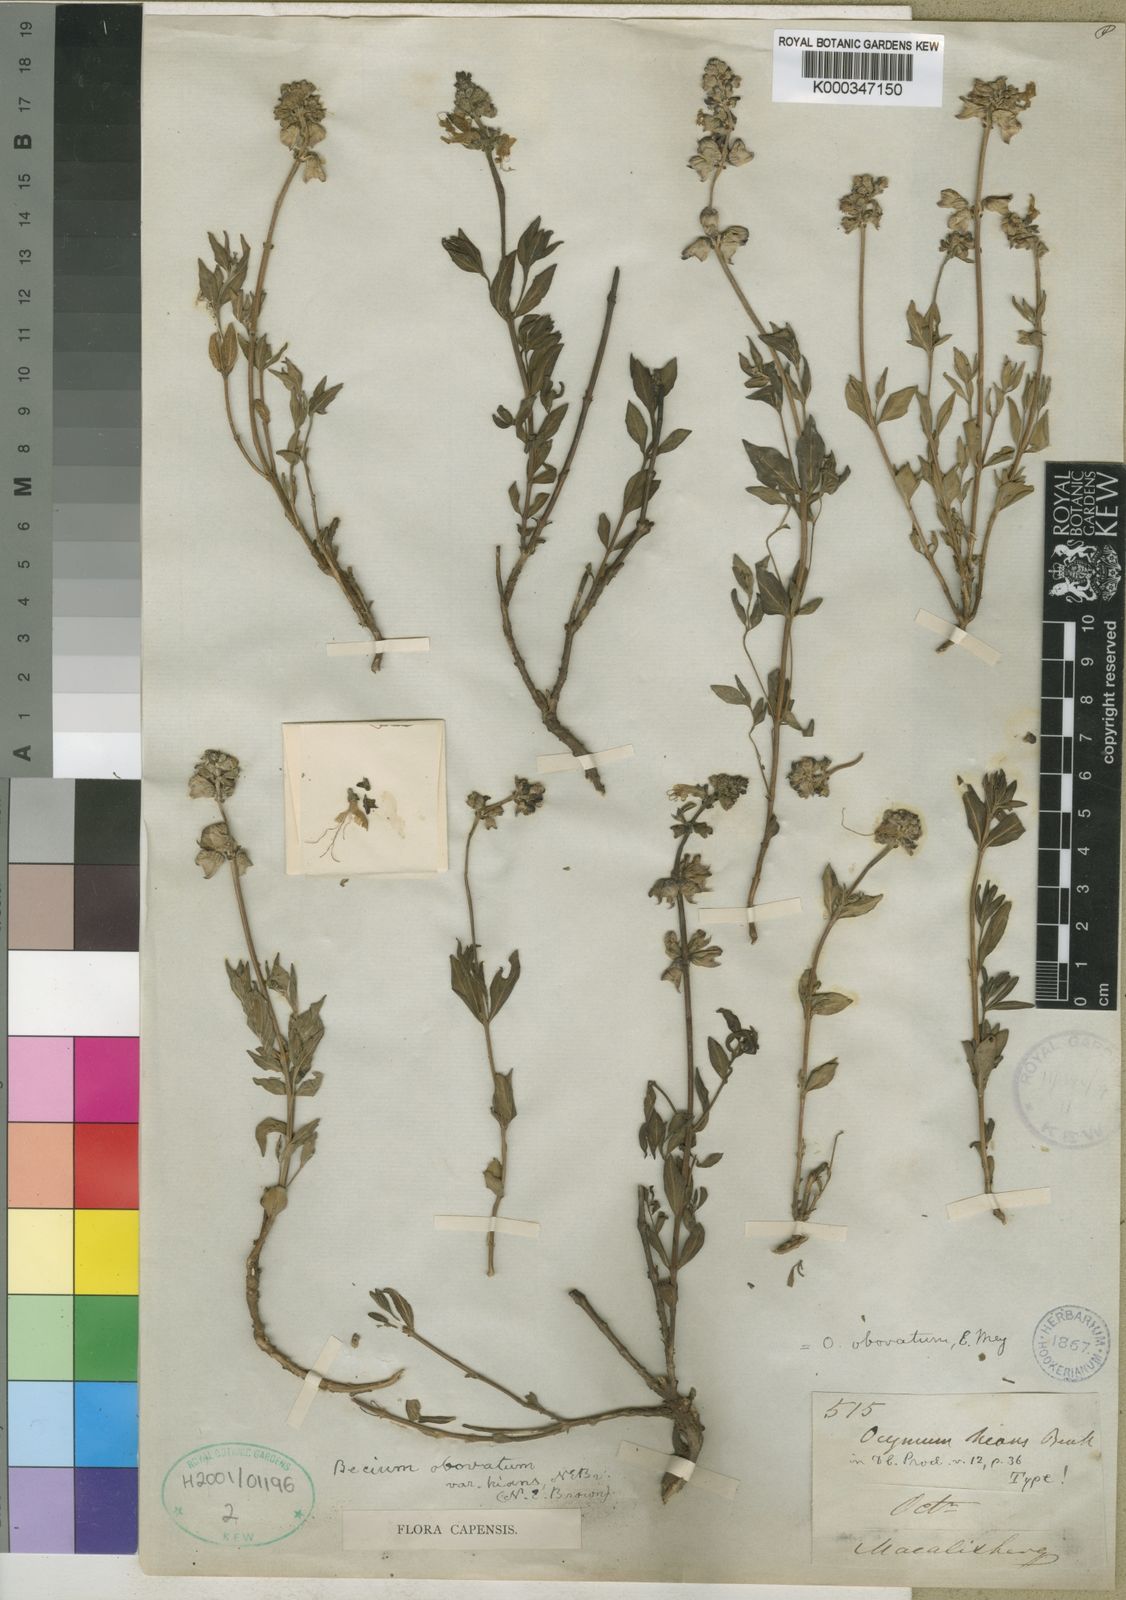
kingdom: Plantae
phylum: Tracheophyta
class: Magnoliopsida
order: Lamiales
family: Lamiaceae
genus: Ocimum
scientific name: Ocimum obovatum
